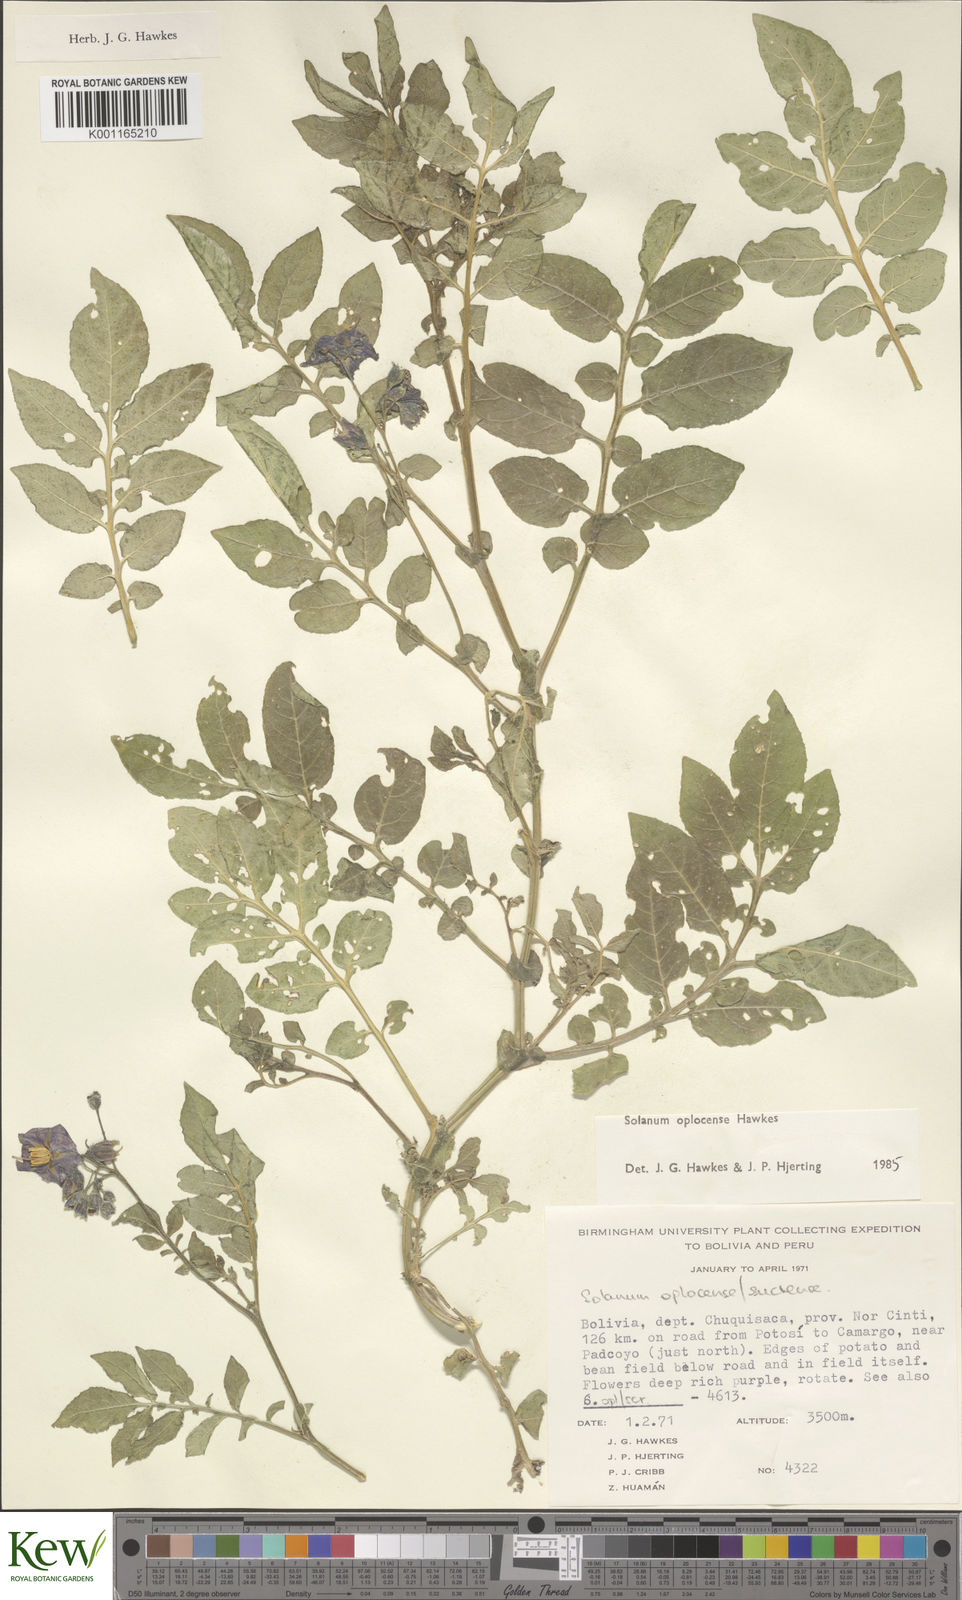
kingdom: Plantae
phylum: Tracheophyta
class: Magnoliopsida
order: Solanales
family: Solanaceae
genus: Solanum
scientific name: Solanum brevicaule
